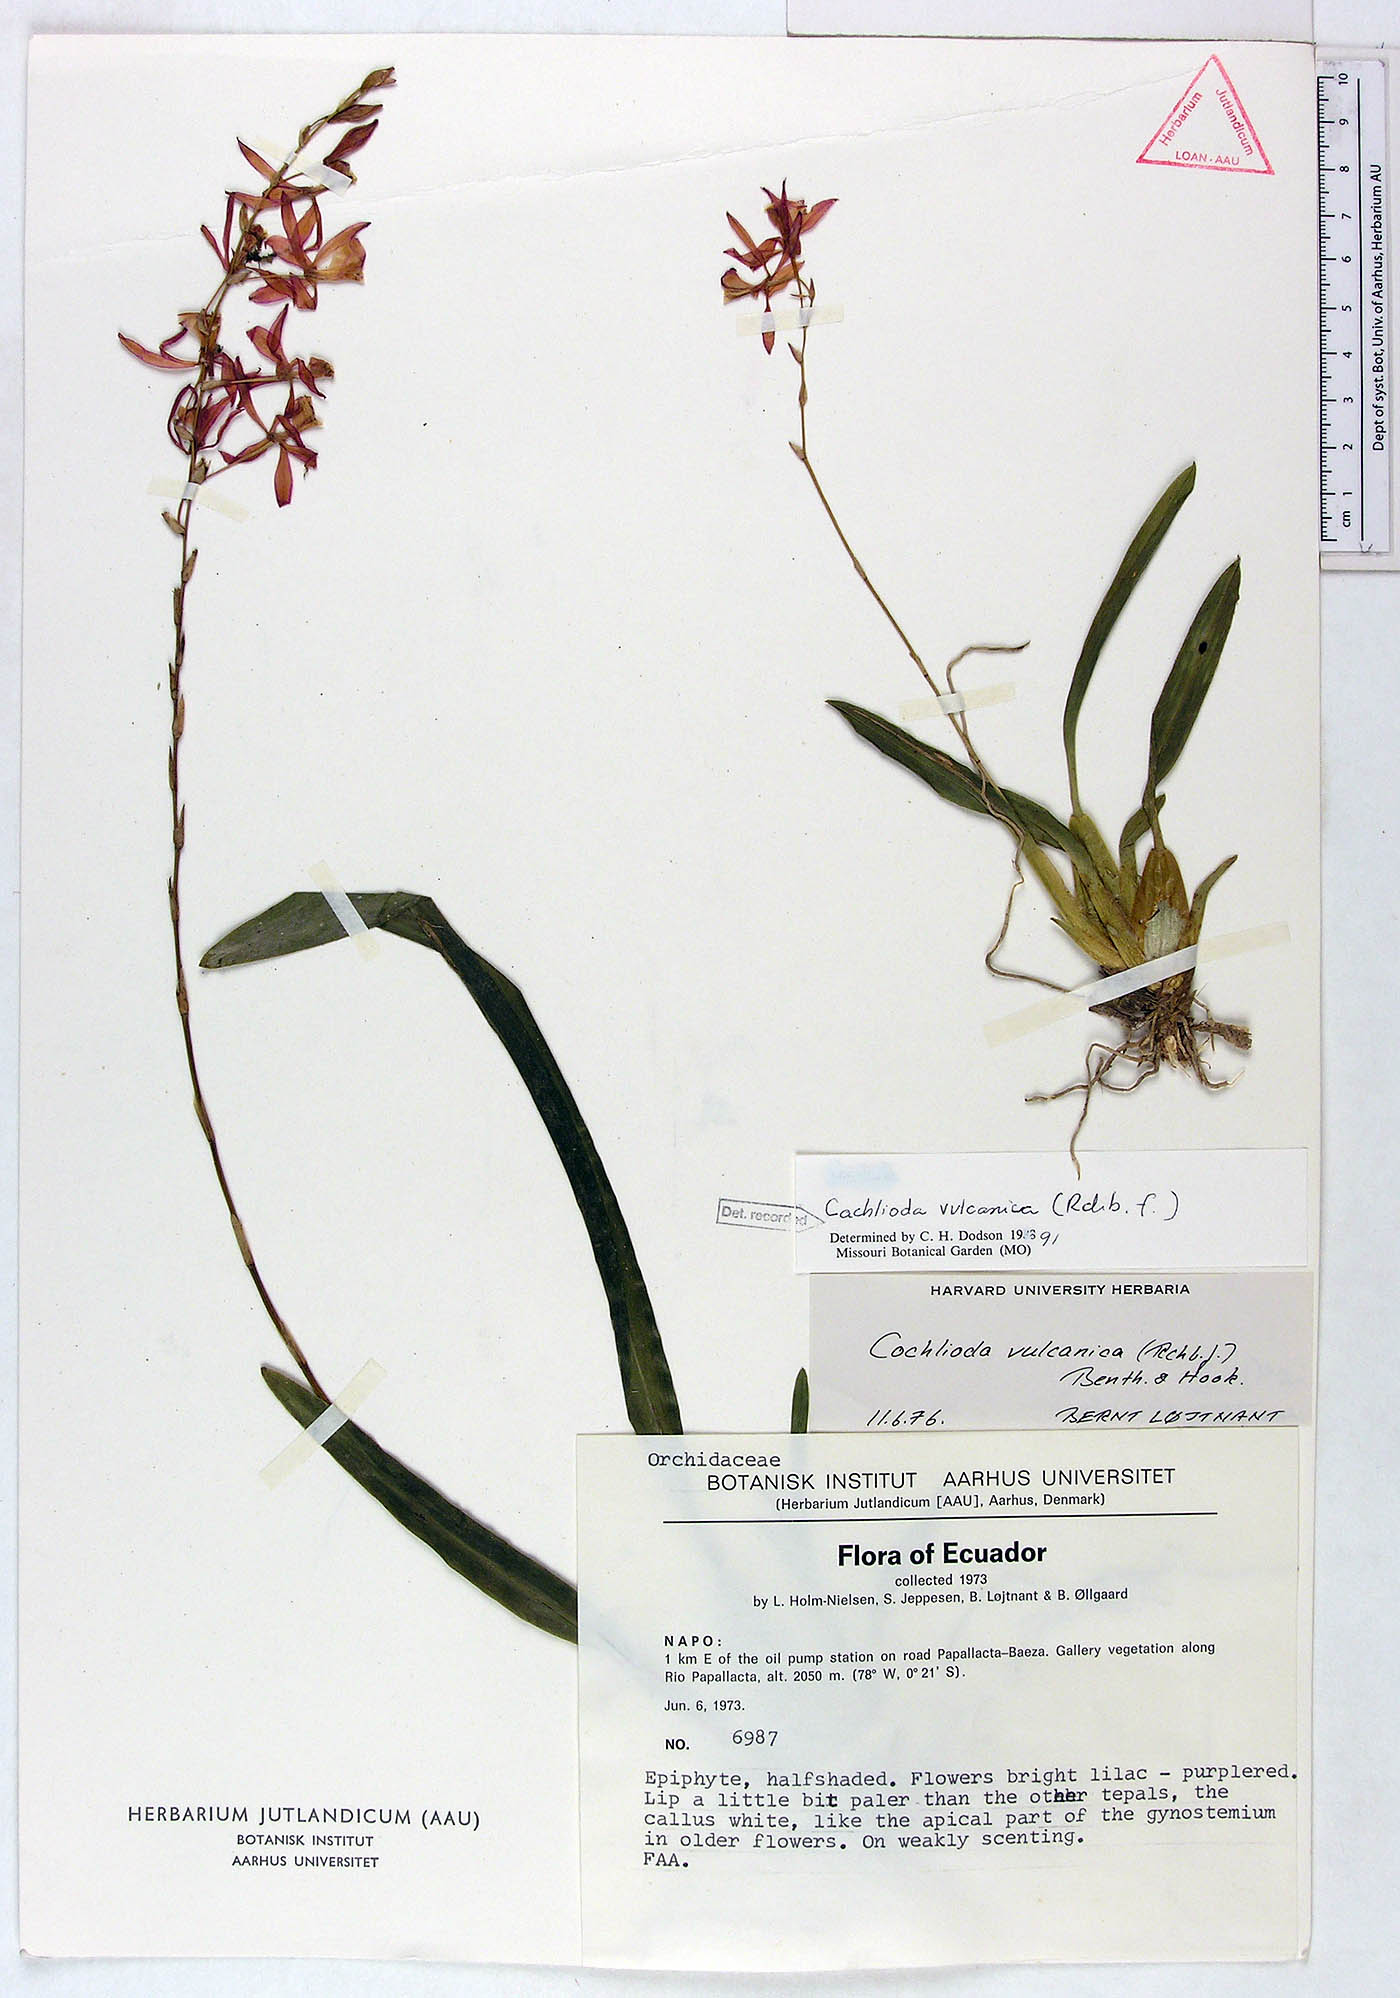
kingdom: Plantae
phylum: Tracheophyta
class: Liliopsida
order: Asparagales
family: Orchidaceae
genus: Oncidium
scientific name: Oncidium vulcanicum
